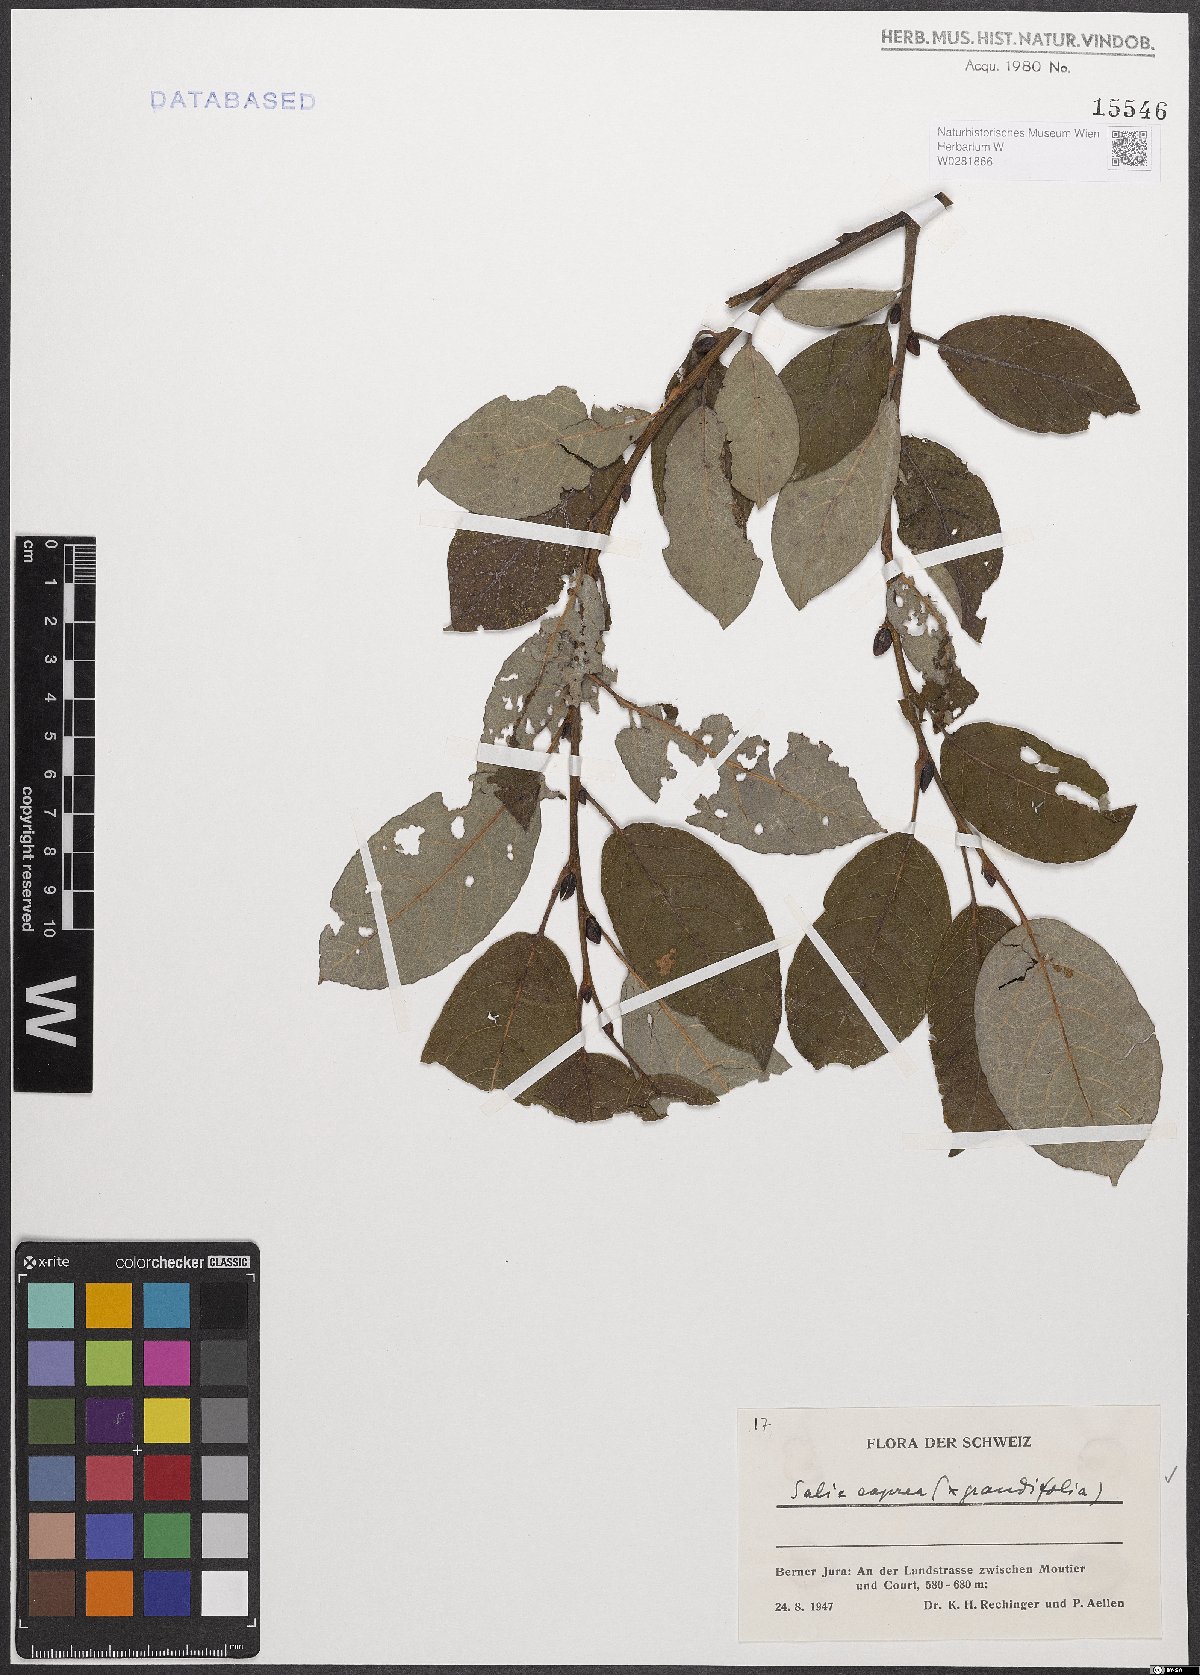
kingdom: Plantae
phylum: Tracheophyta
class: Magnoliopsida
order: Malpighiales
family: Salicaceae
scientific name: Salicaceae
